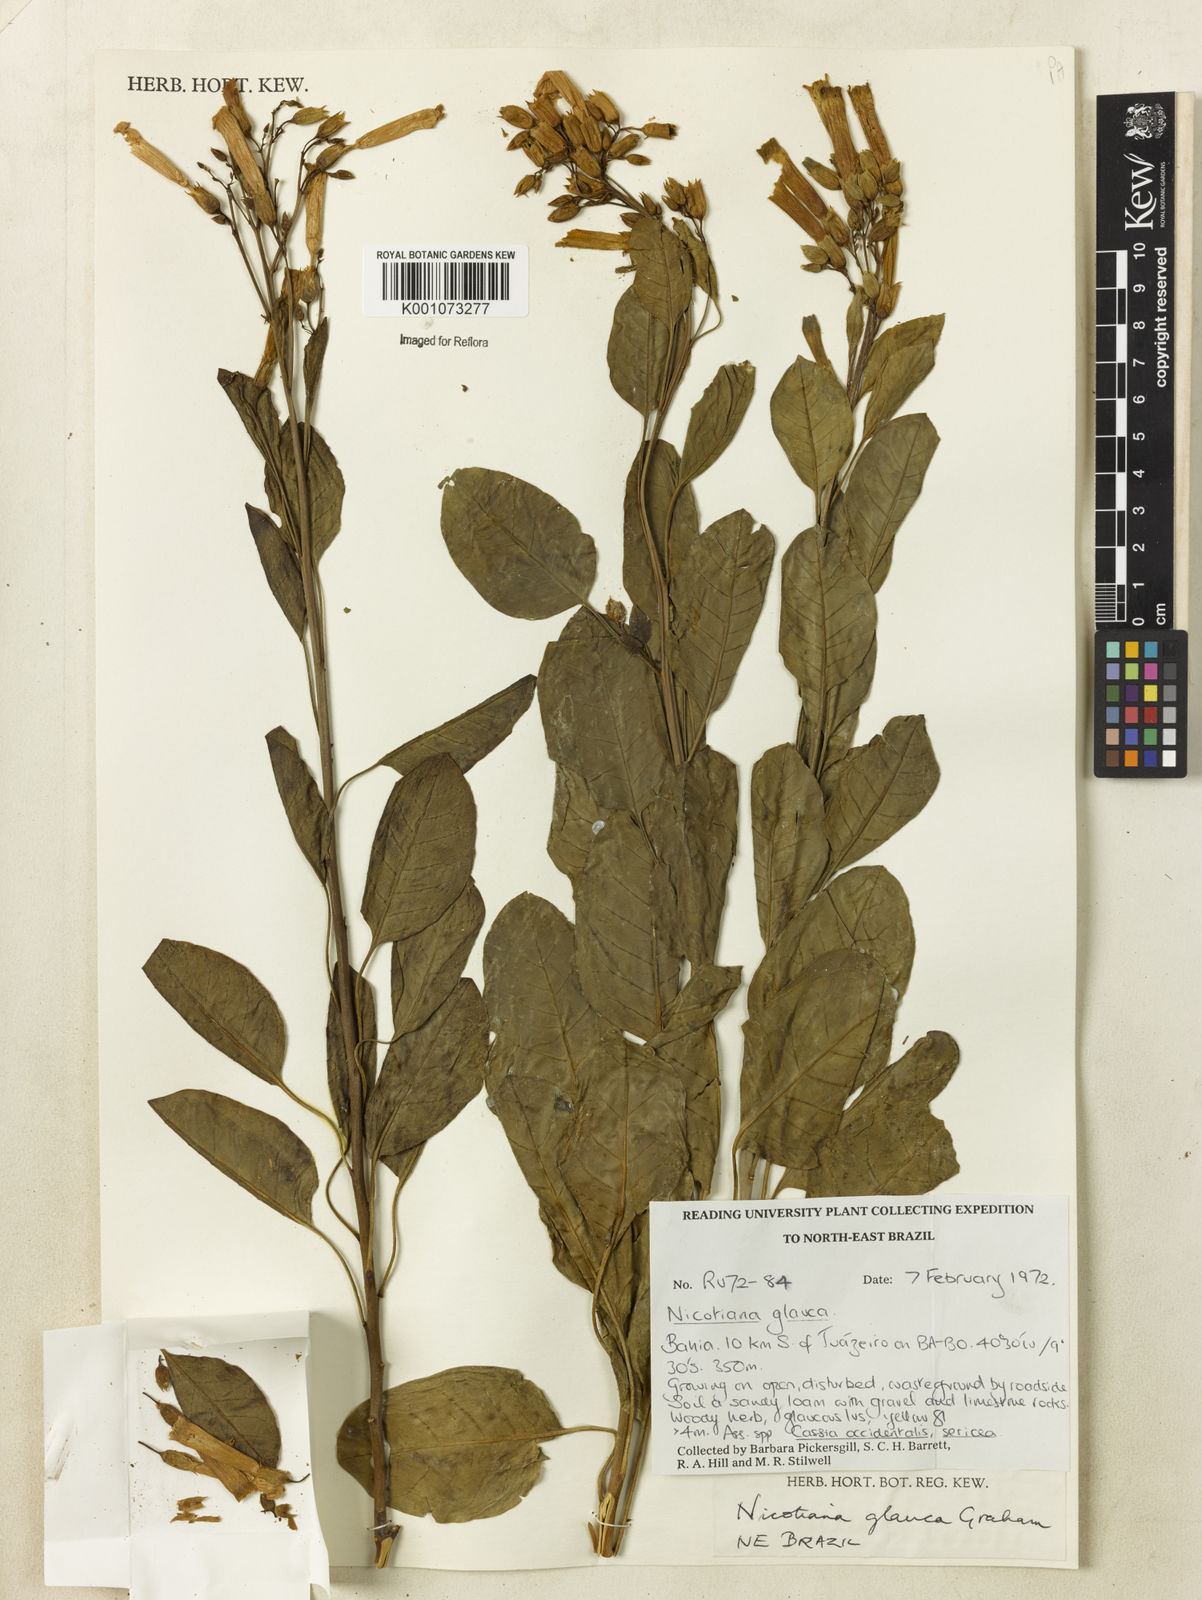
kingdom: Plantae
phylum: Tracheophyta
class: Magnoliopsida
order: Solanales
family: Solanaceae
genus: Nicotiana
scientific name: Nicotiana glauca
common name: Tree tobacco
